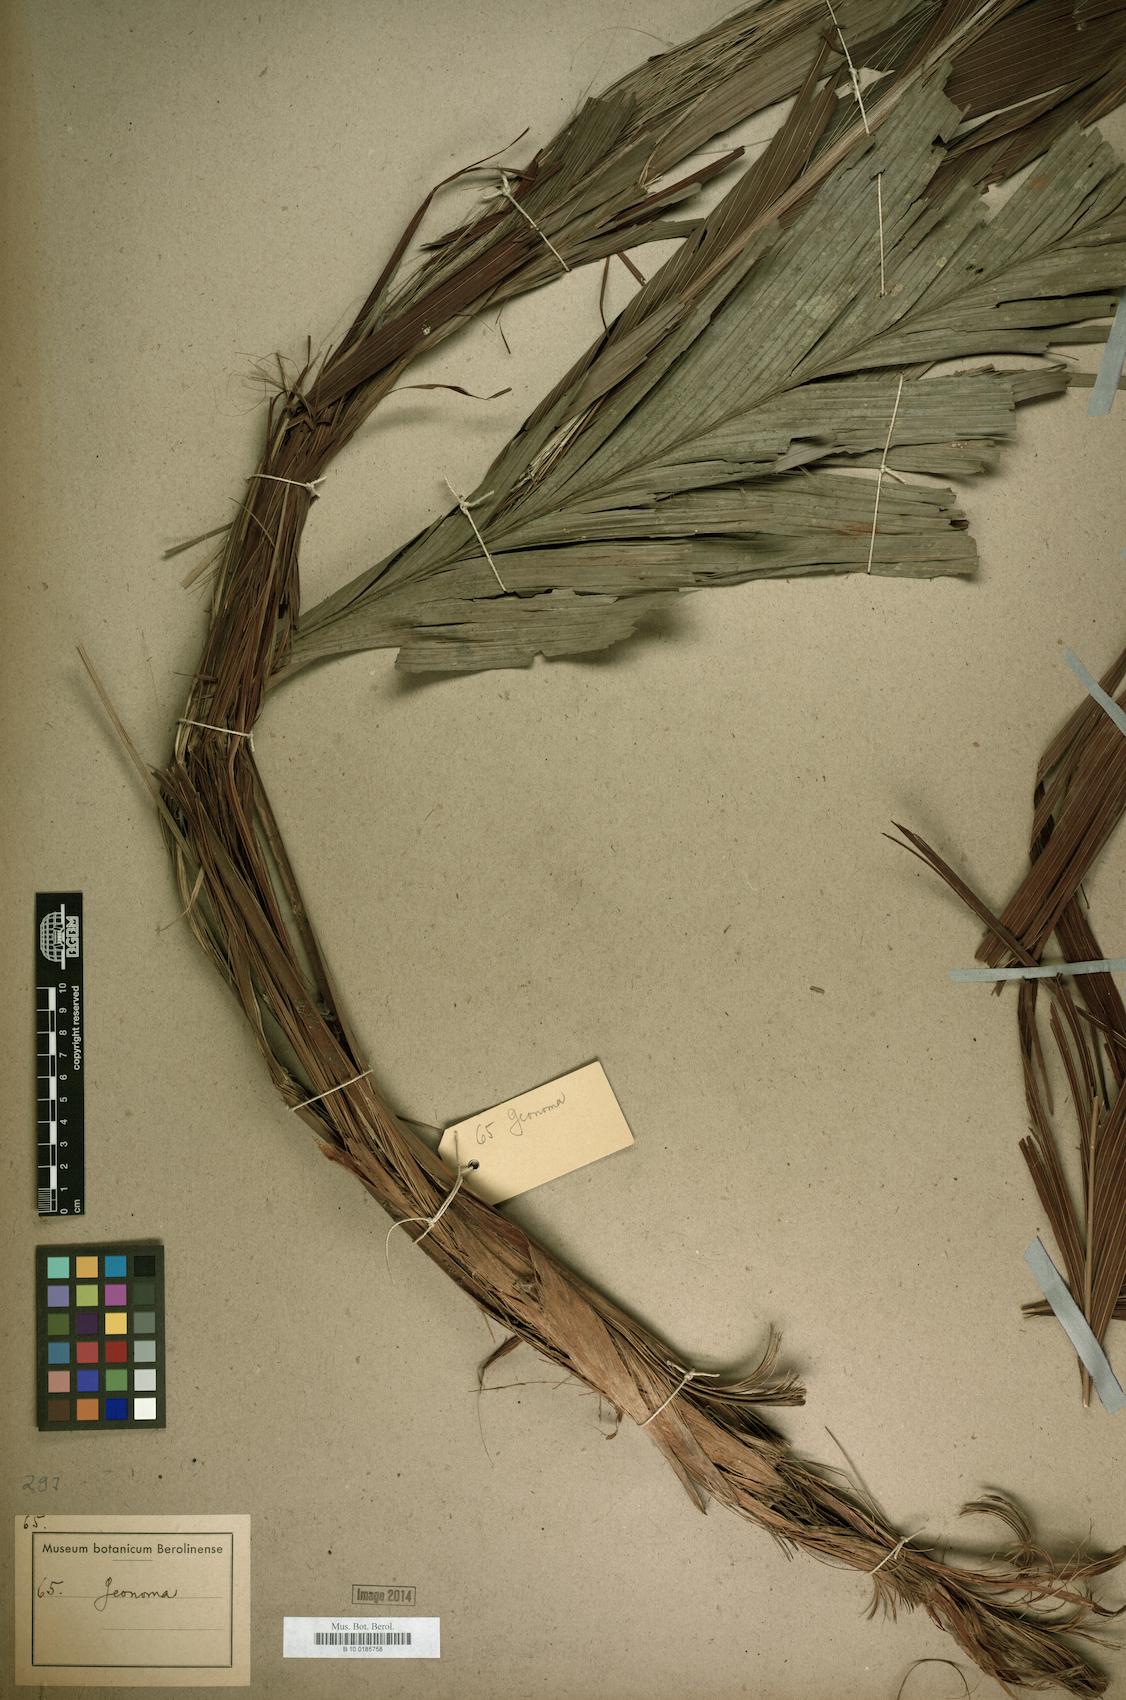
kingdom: Plantae
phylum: Tracheophyta
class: Liliopsida
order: Arecales
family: Arecaceae
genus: Geonoma
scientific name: Geonoma
